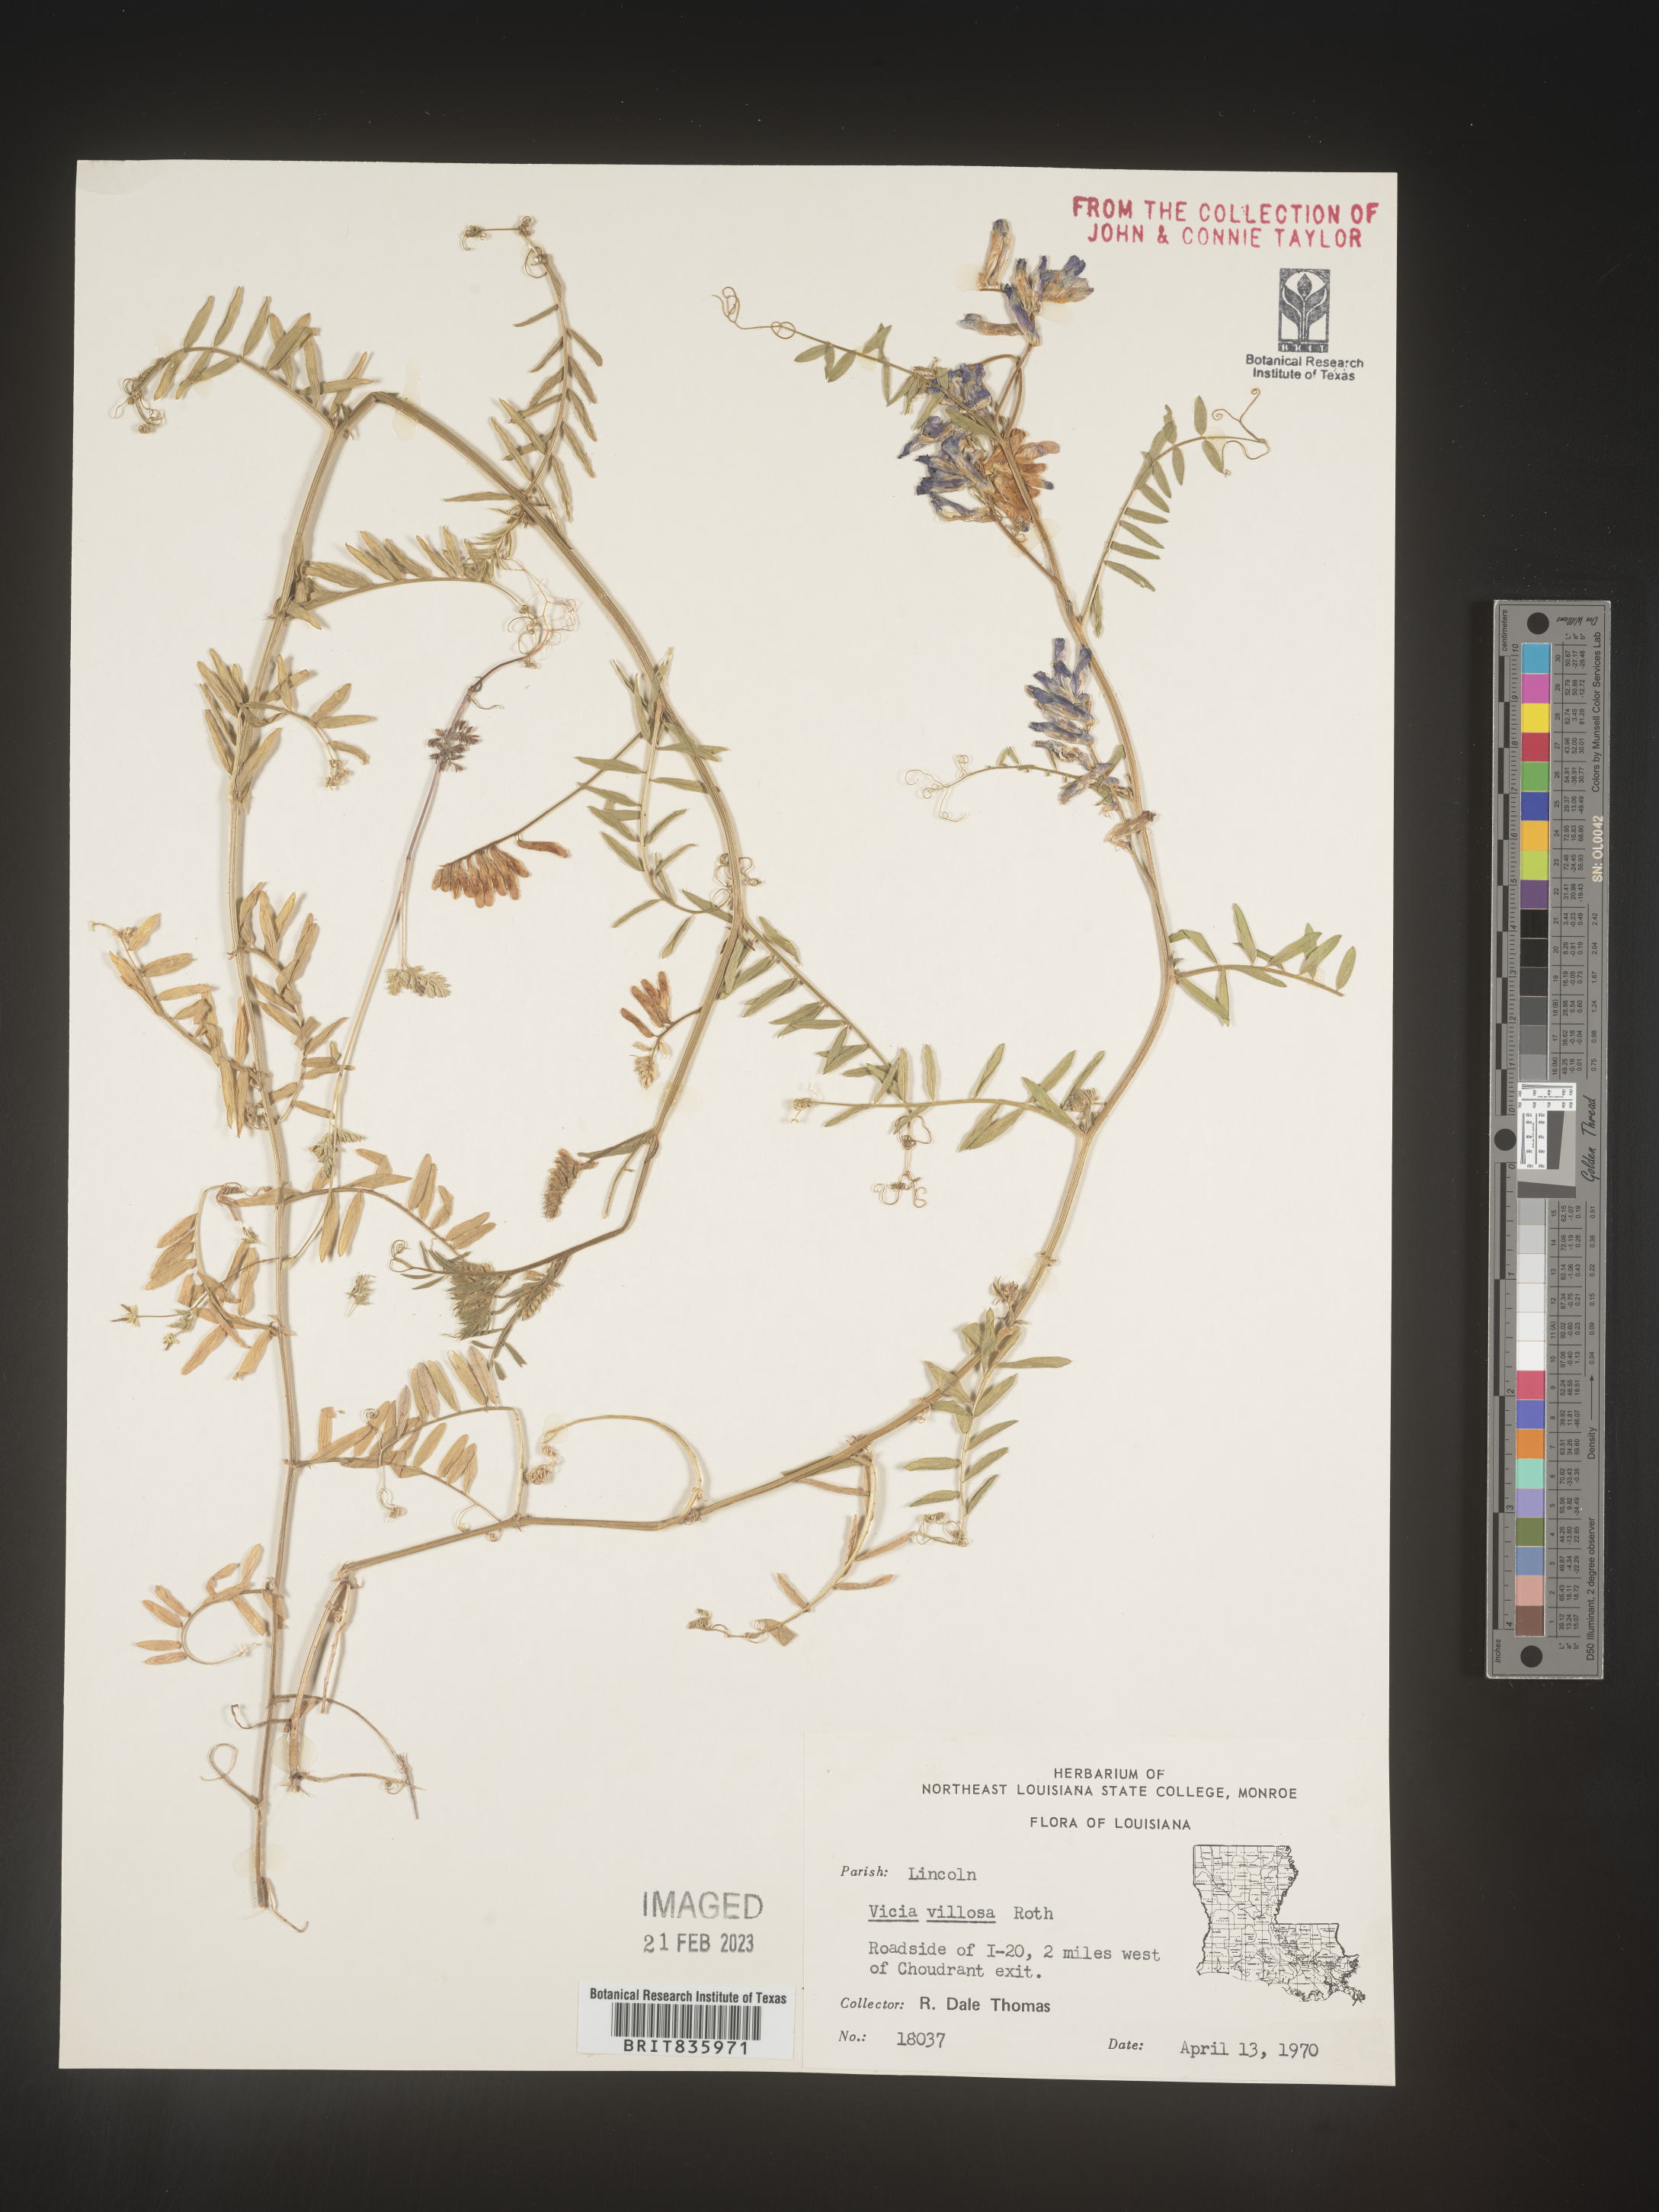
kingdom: Plantae
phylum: Tracheophyta
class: Magnoliopsida
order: Fabales
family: Fabaceae
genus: Vicia
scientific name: Vicia villosa
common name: Fodder vetch
